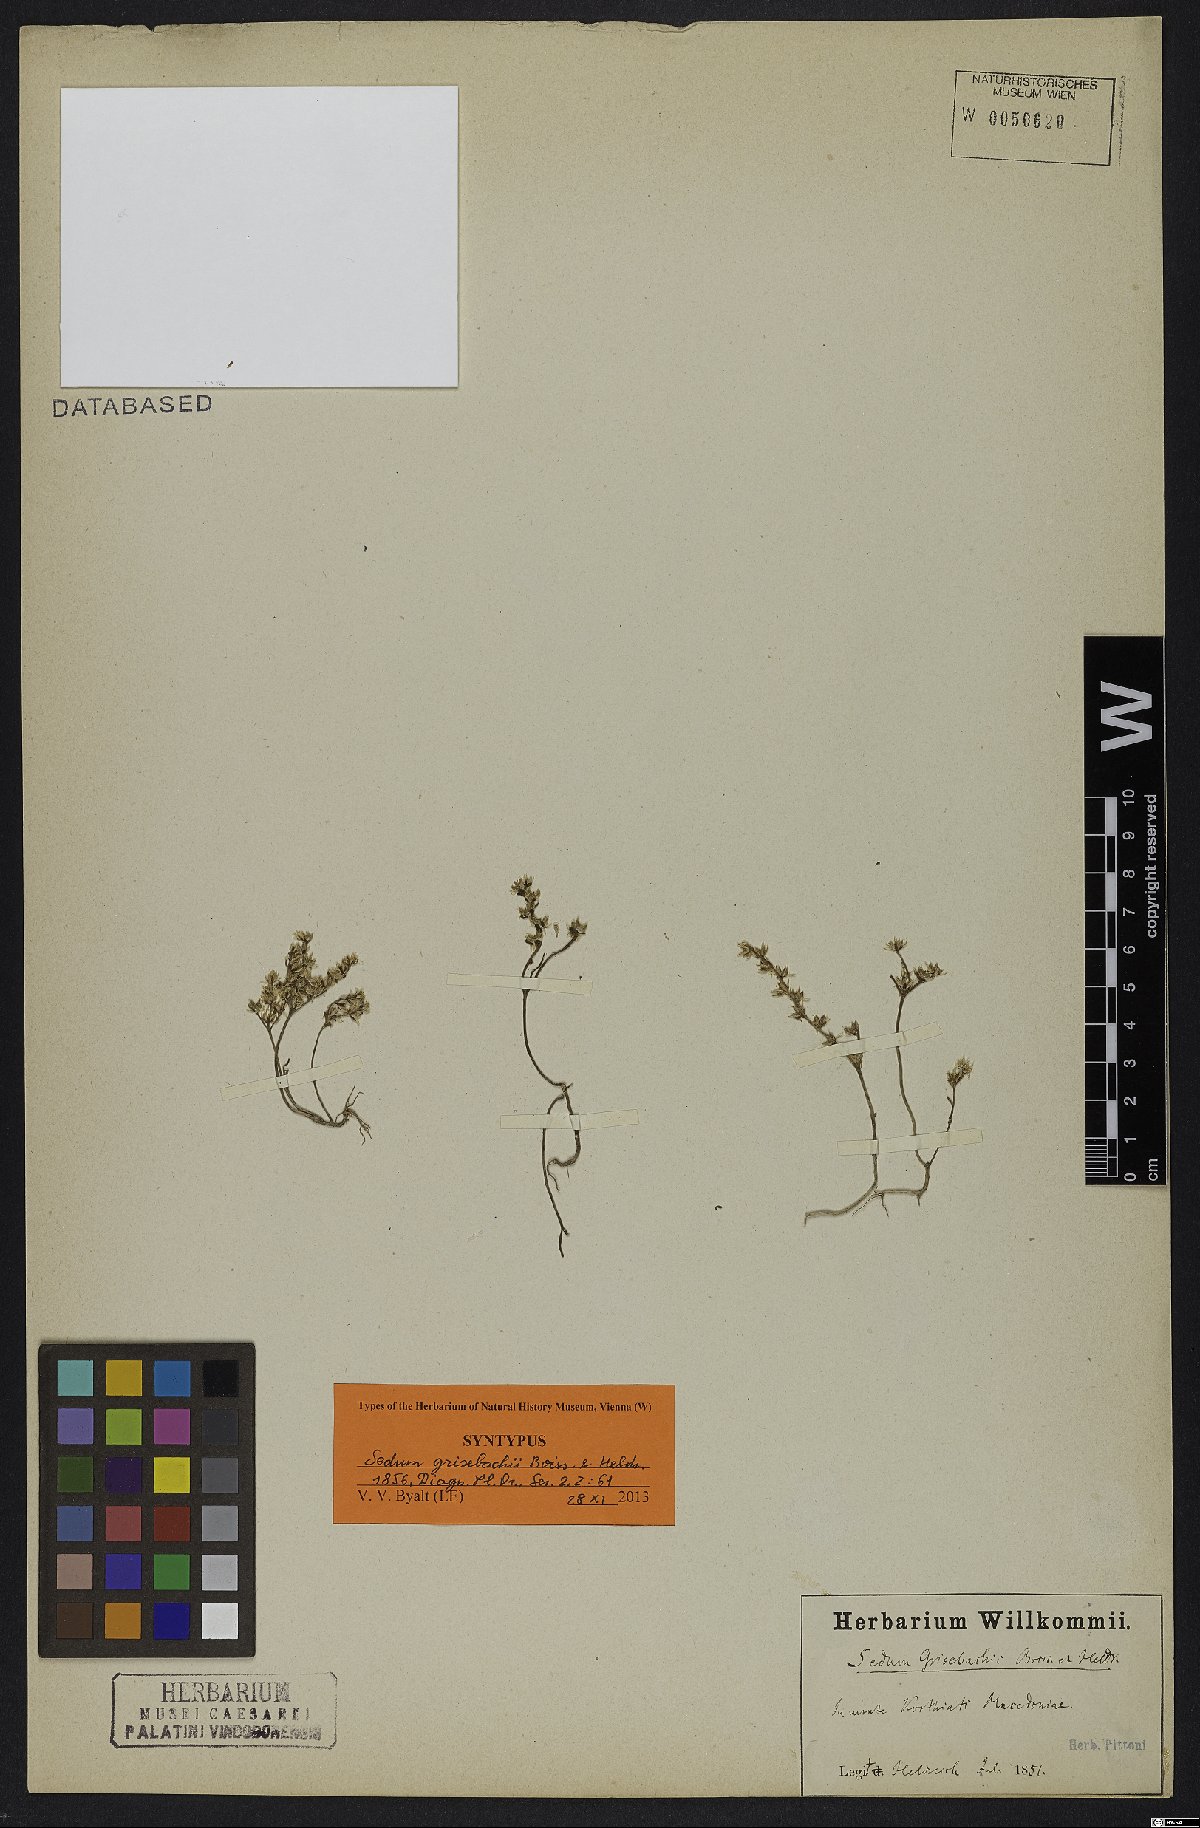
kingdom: Plantae
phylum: Tracheophyta
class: Magnoliopsida
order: Saxifragales
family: Crassulaceae
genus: Sedum
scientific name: Sedum grisebachii
